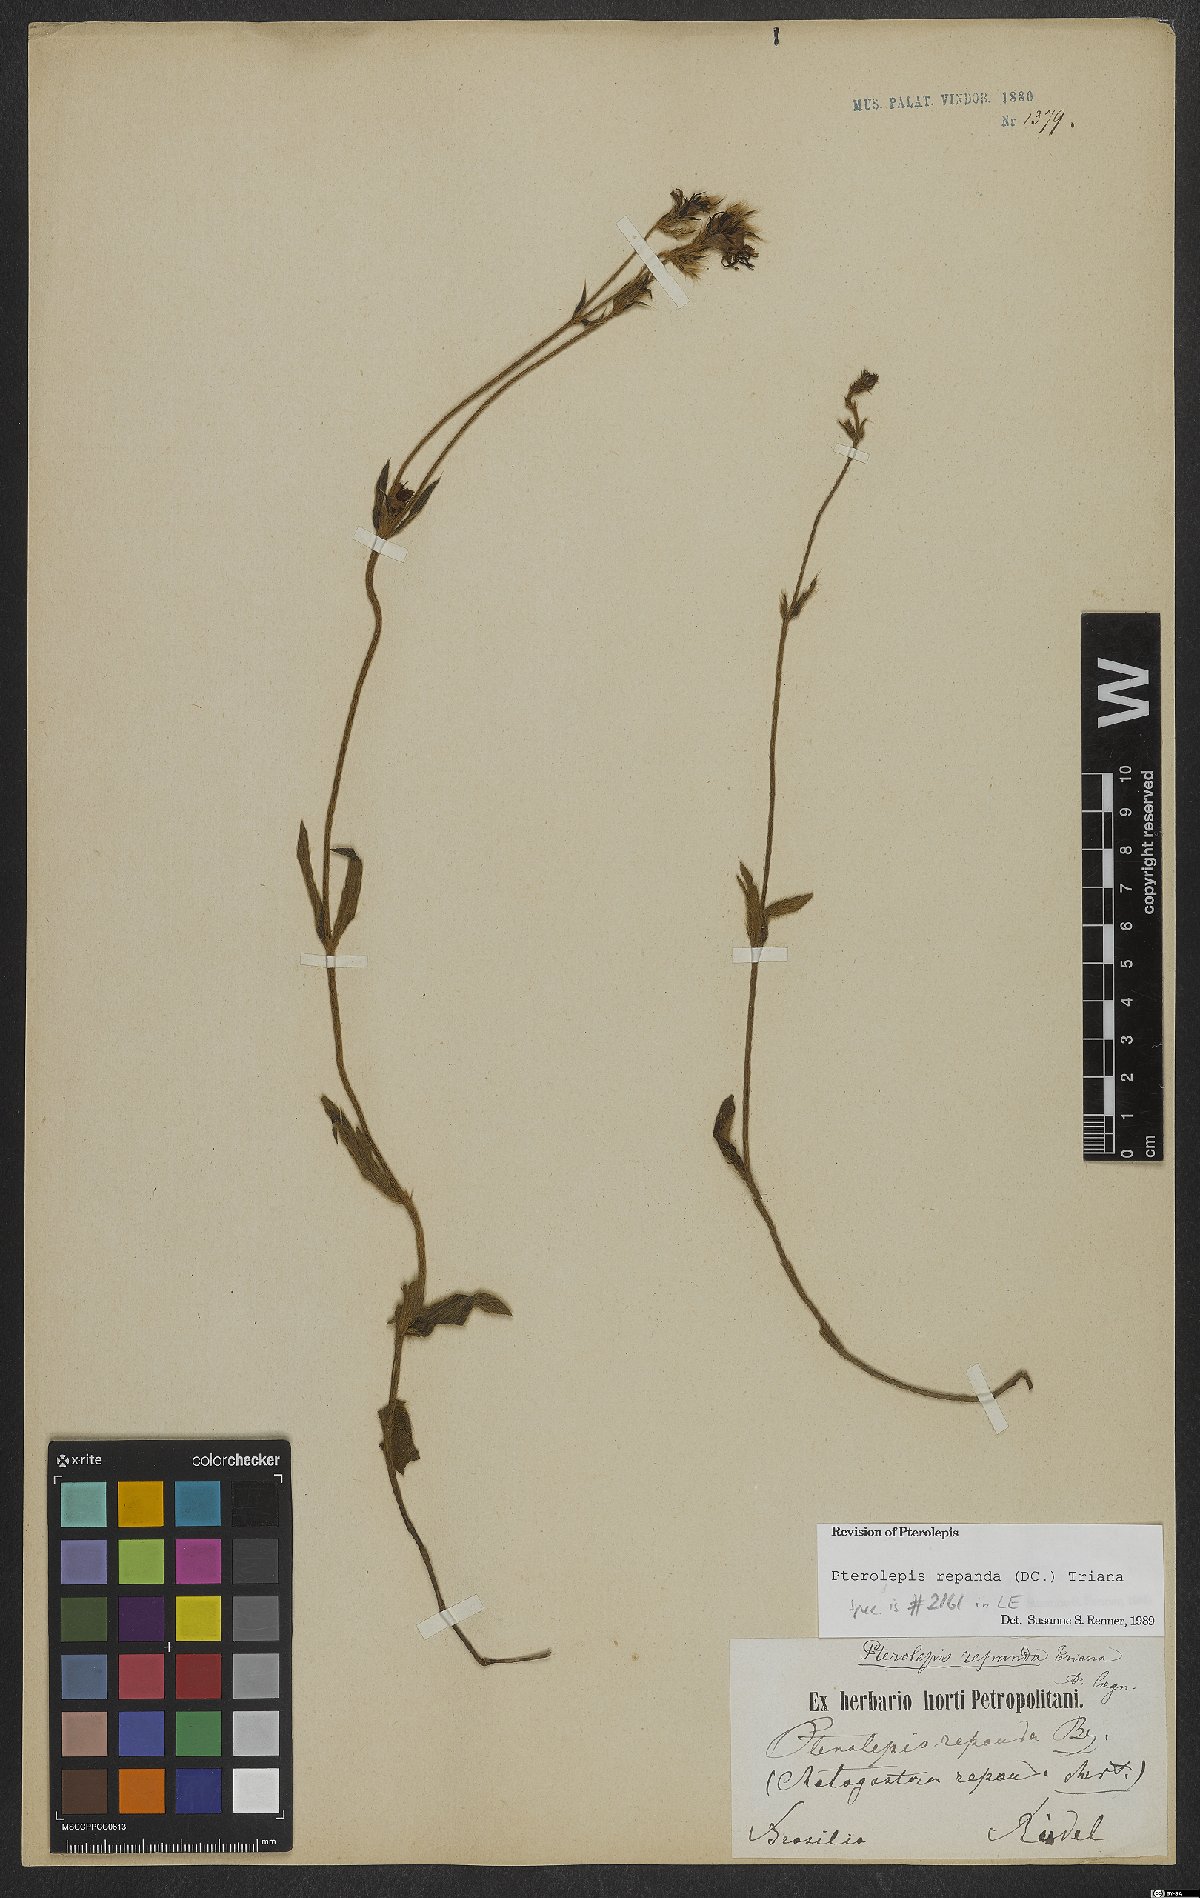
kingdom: Plantae
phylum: Tracheophyta
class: Magnoliopsida
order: Myrtales
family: Melastomataceae
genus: Pterolepis
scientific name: Pterolepis repanda
